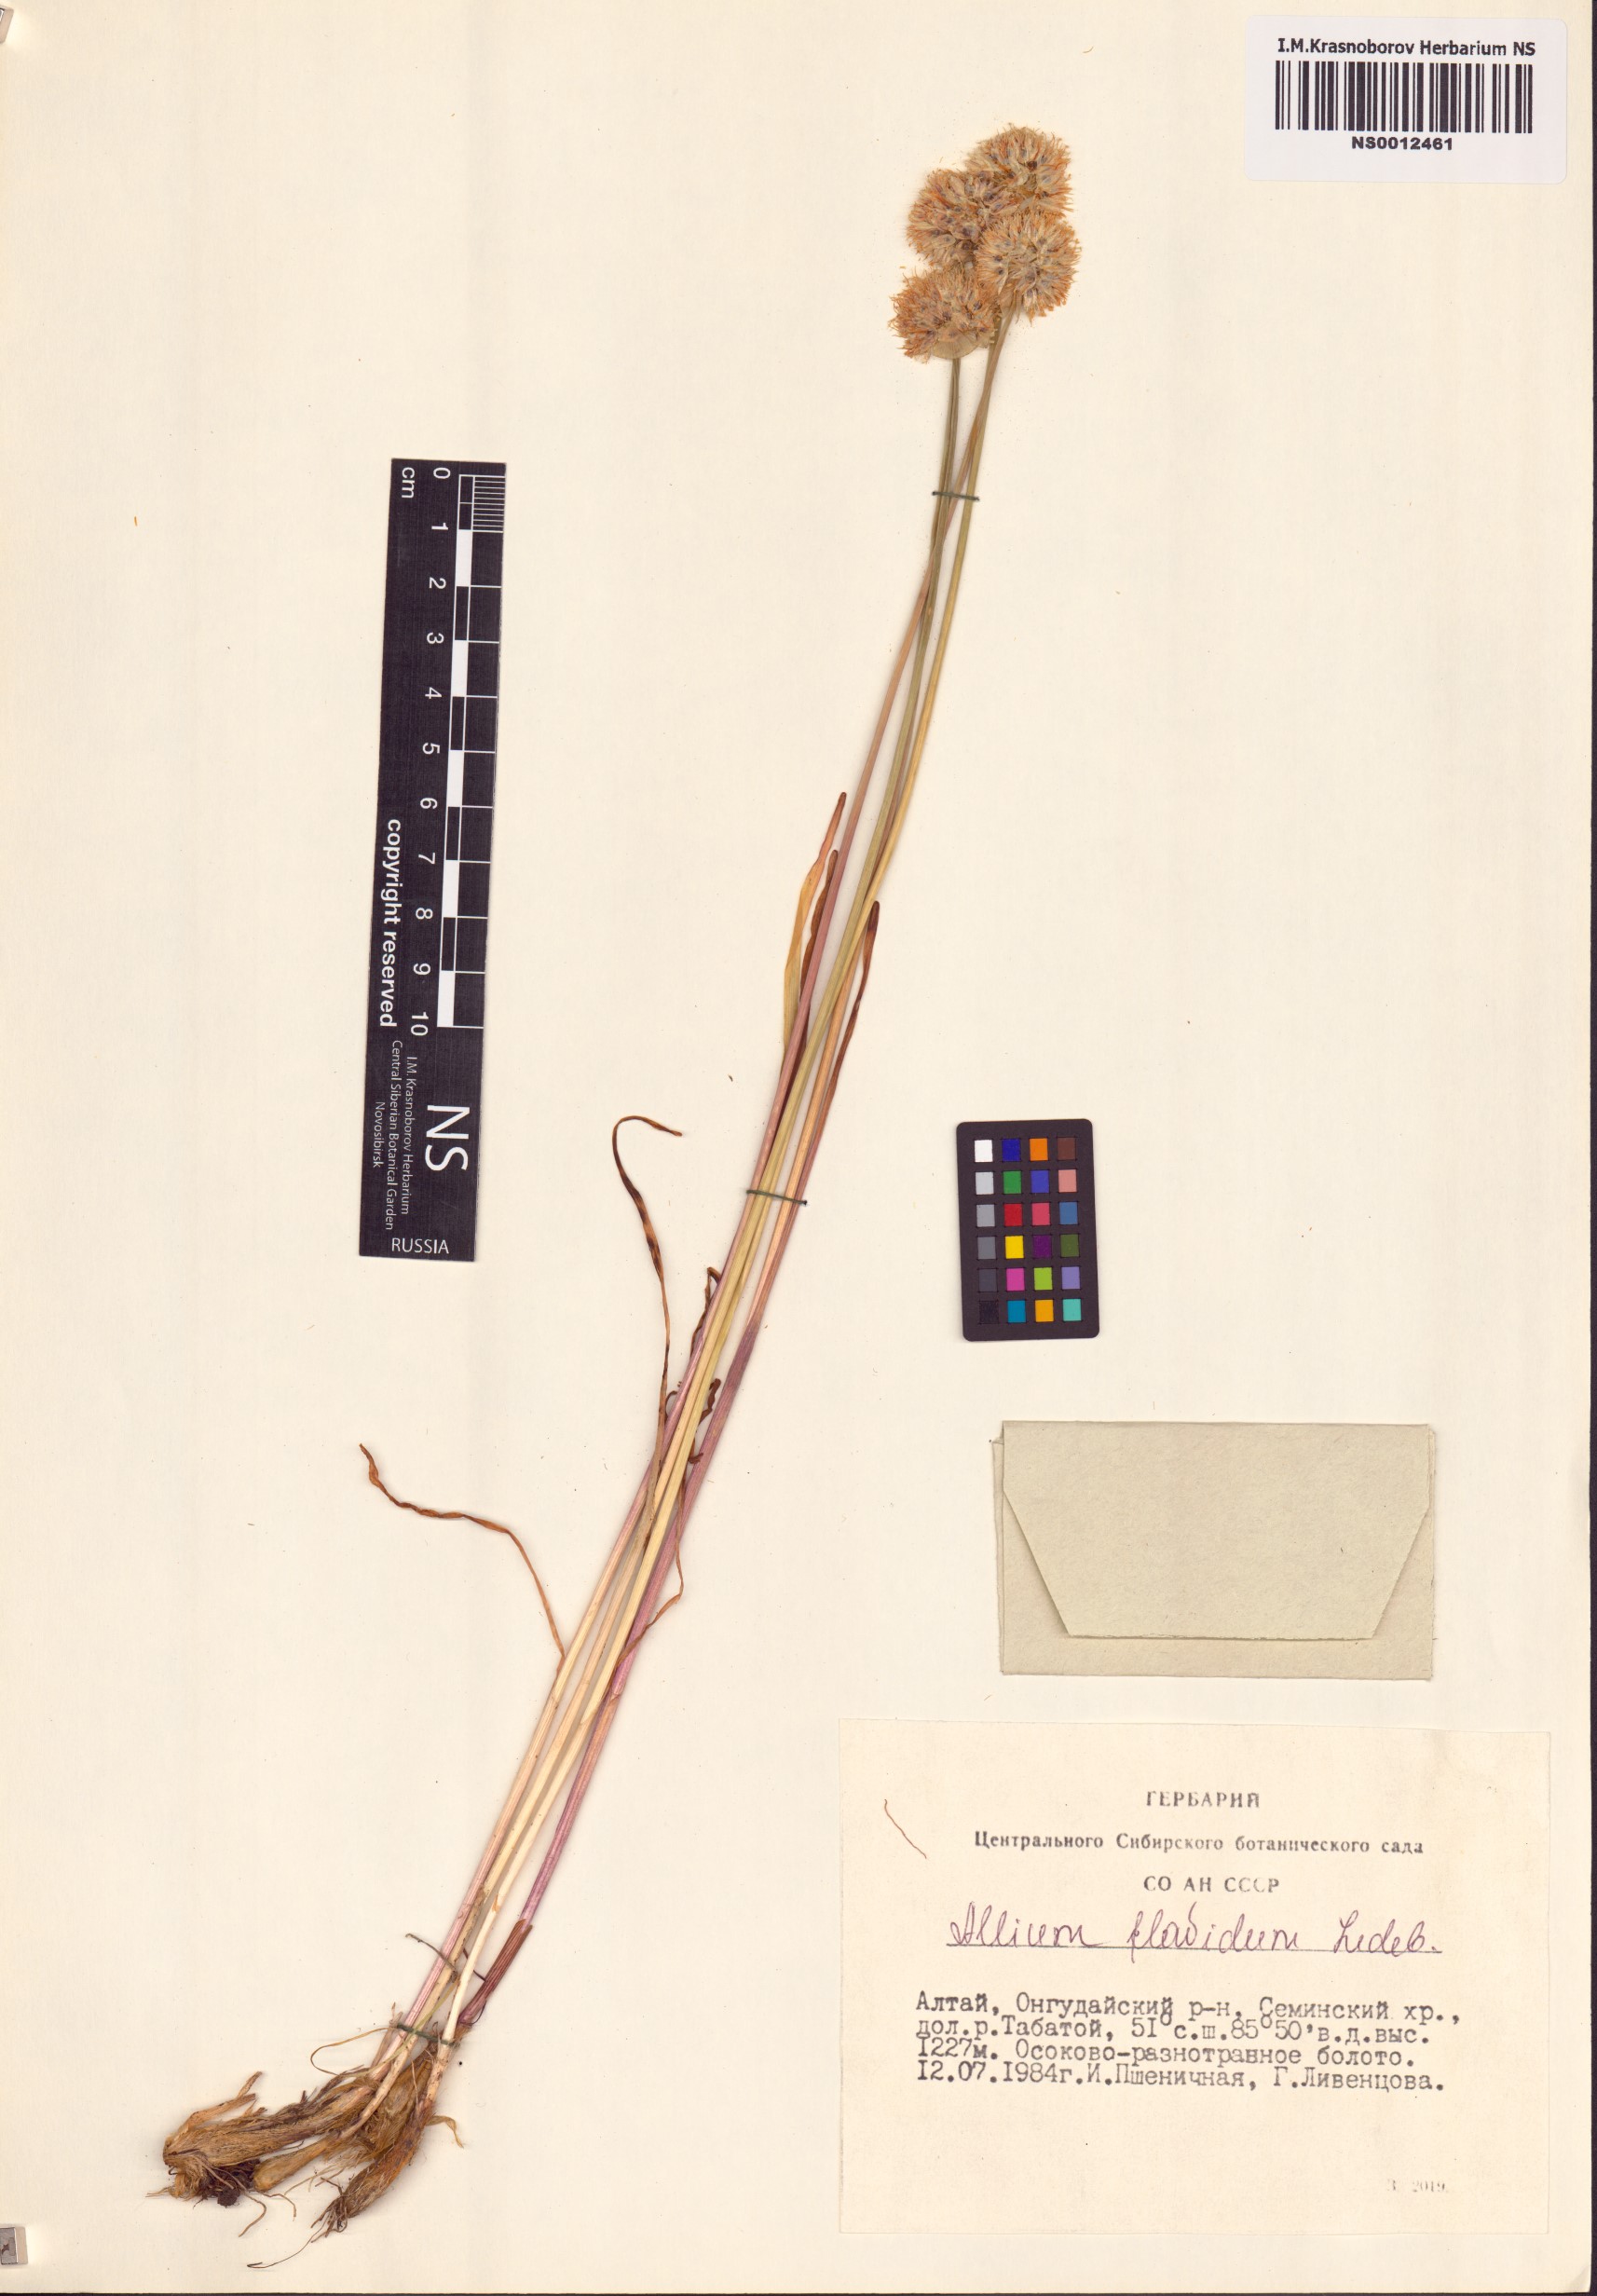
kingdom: Plantae
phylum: Tracheophyta
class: Liliopsida
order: Asparagales
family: Amaryllidaceae
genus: Allium
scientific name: Allium flavidum
